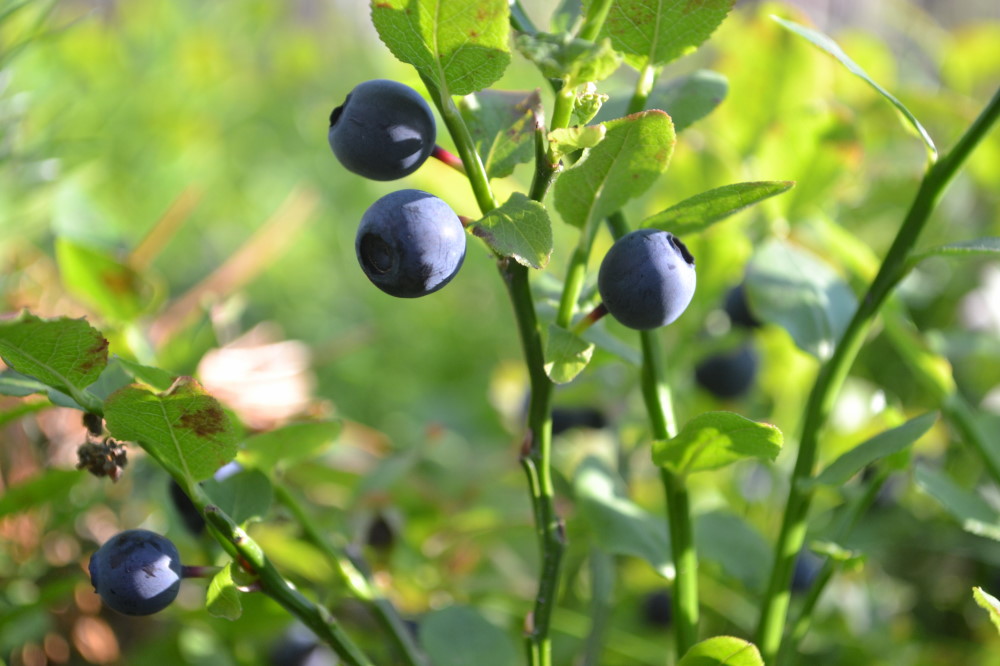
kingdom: Plantae
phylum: Tracheophyta
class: Magnoliopsida
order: Ericales
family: Ericaceae
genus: Vaccinium
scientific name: Vaccinium myrtillus
